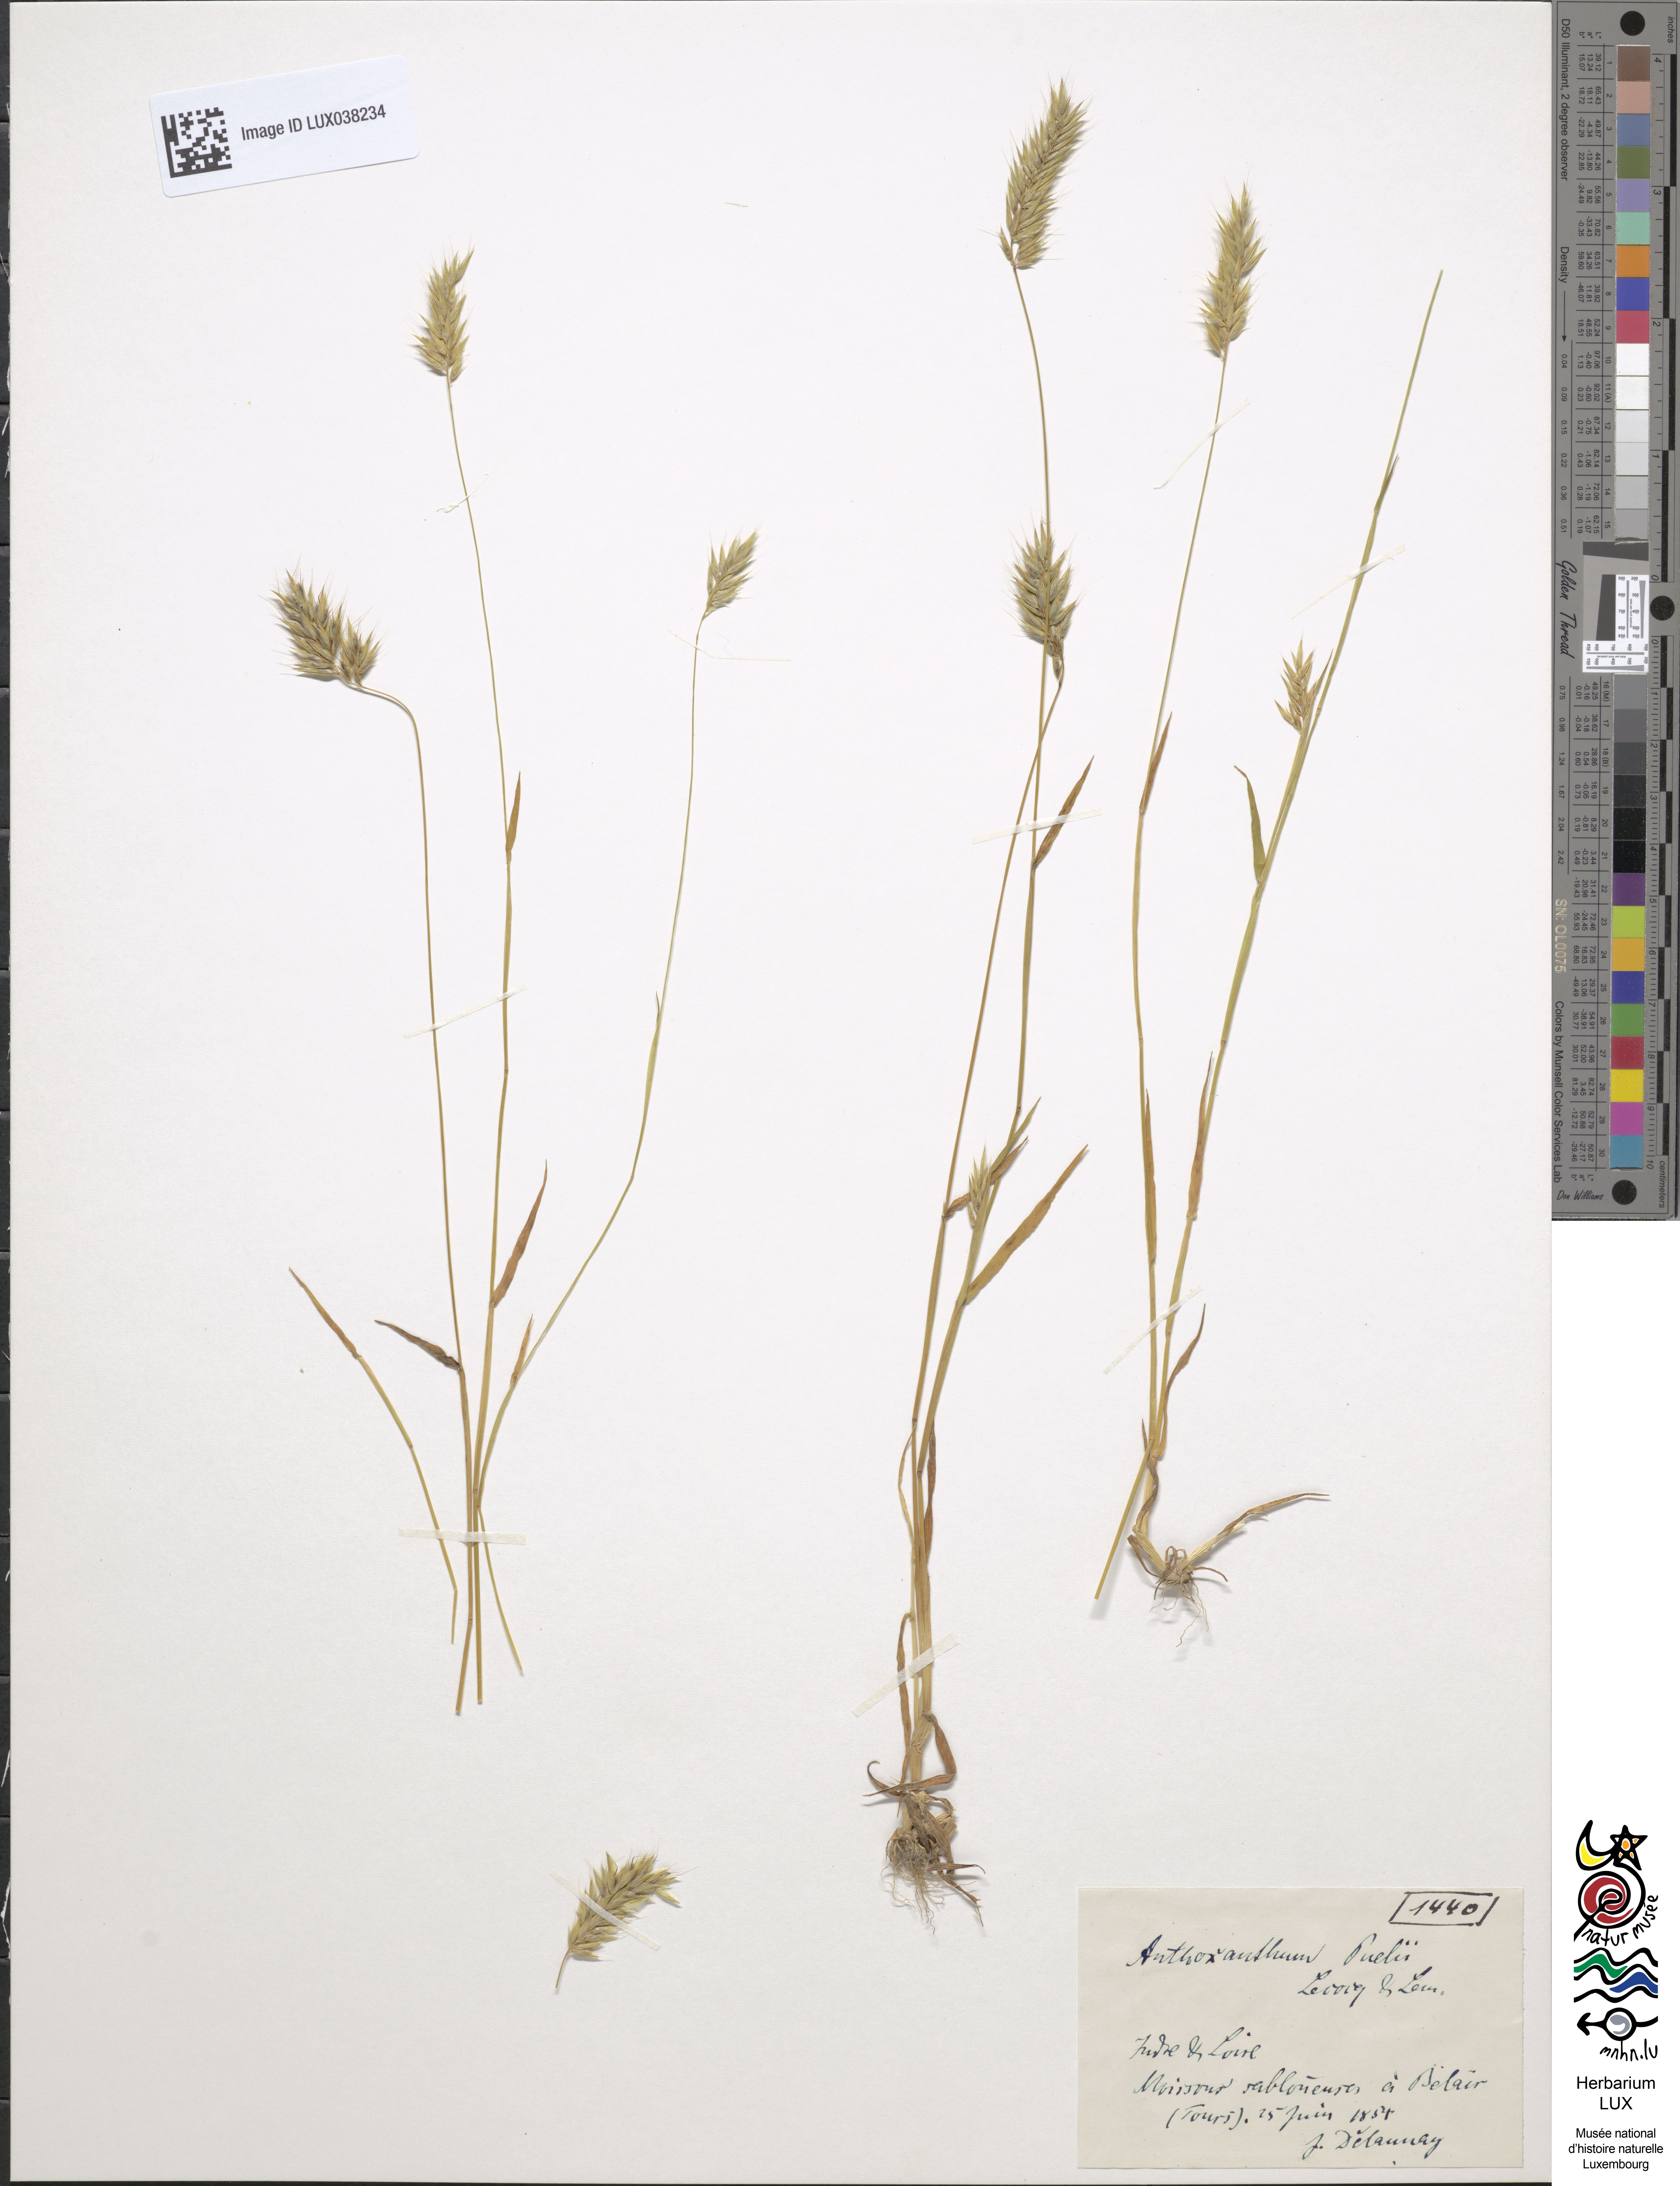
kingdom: Plantae
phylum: Tracheophyta
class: Liliopsida
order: Poales
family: Poaceae
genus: Anthoxanthum
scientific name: Anthoxanthum aristatum
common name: Annual vernal-grass
